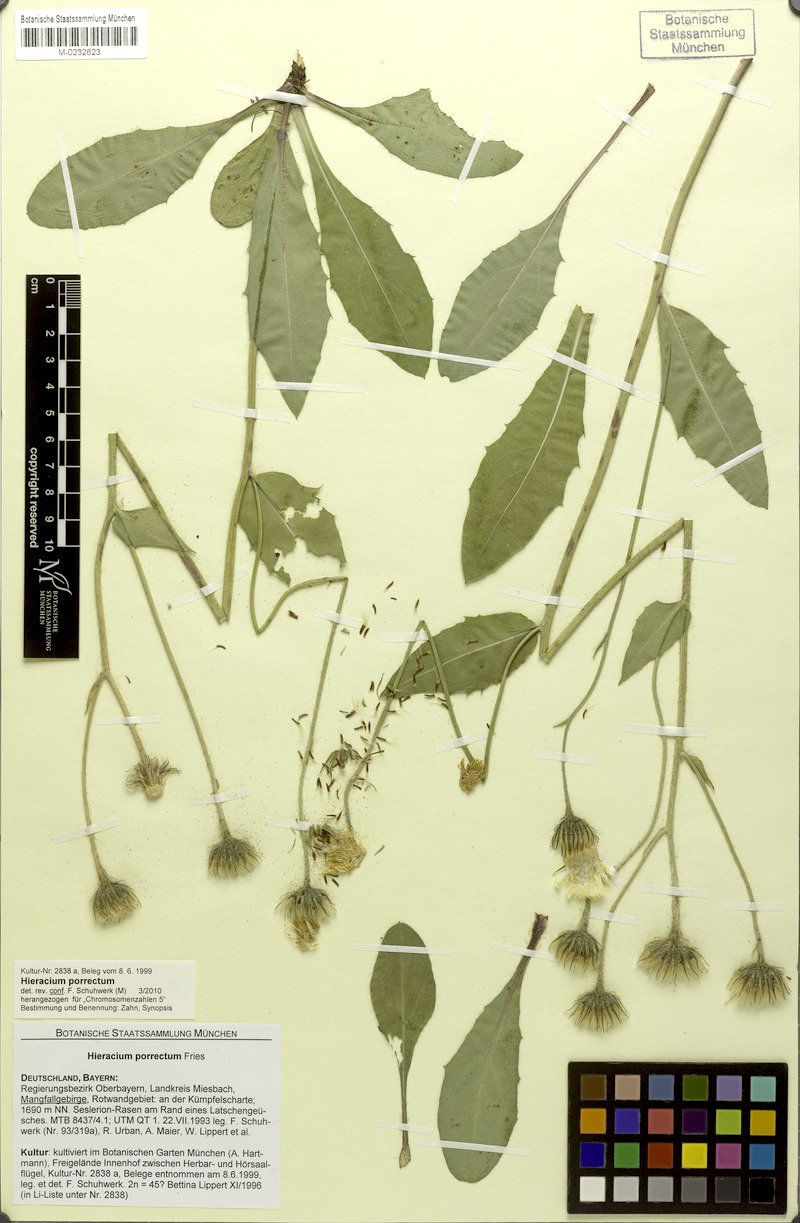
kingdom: Plantae
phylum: Tracheophyta
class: Magnoliopsida
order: Asterales
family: Asteraceae
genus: Hieracium
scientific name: Hieracium porrectum
